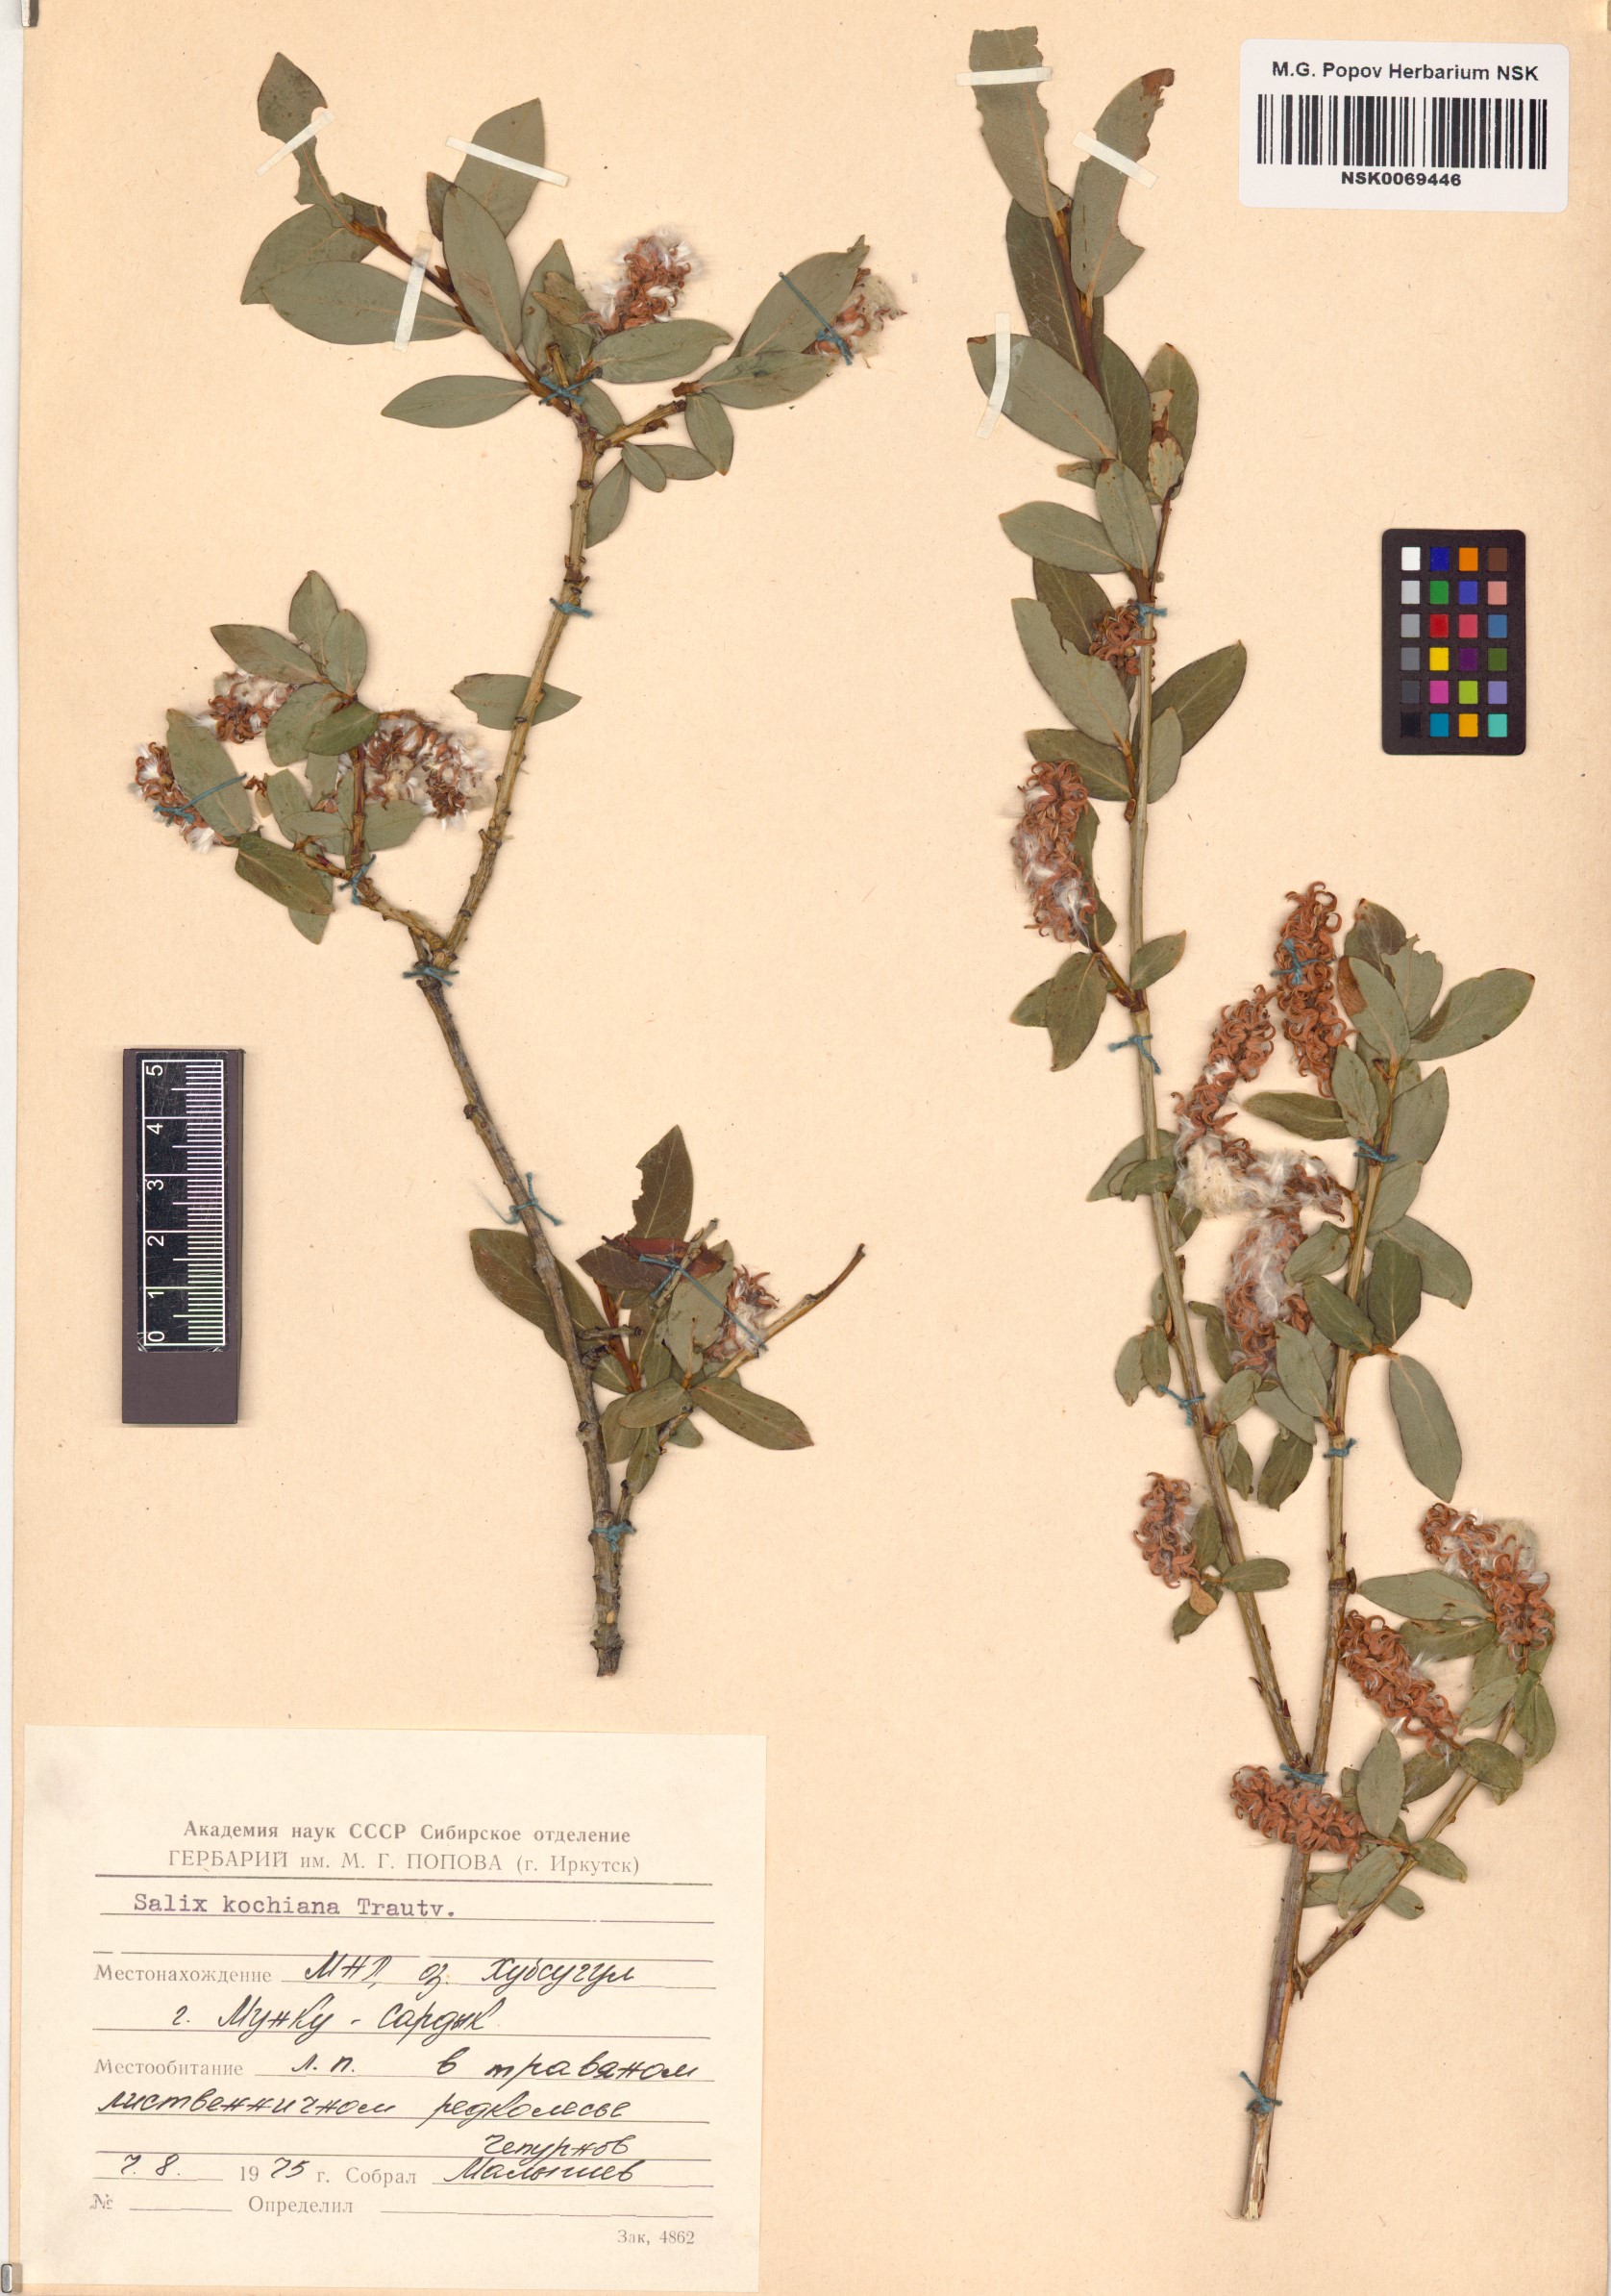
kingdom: Plantae
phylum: Tracheophyta
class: Magnoliopsida
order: Malpighiales
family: Salicaceae
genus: Salix
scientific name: Salix kochiana
